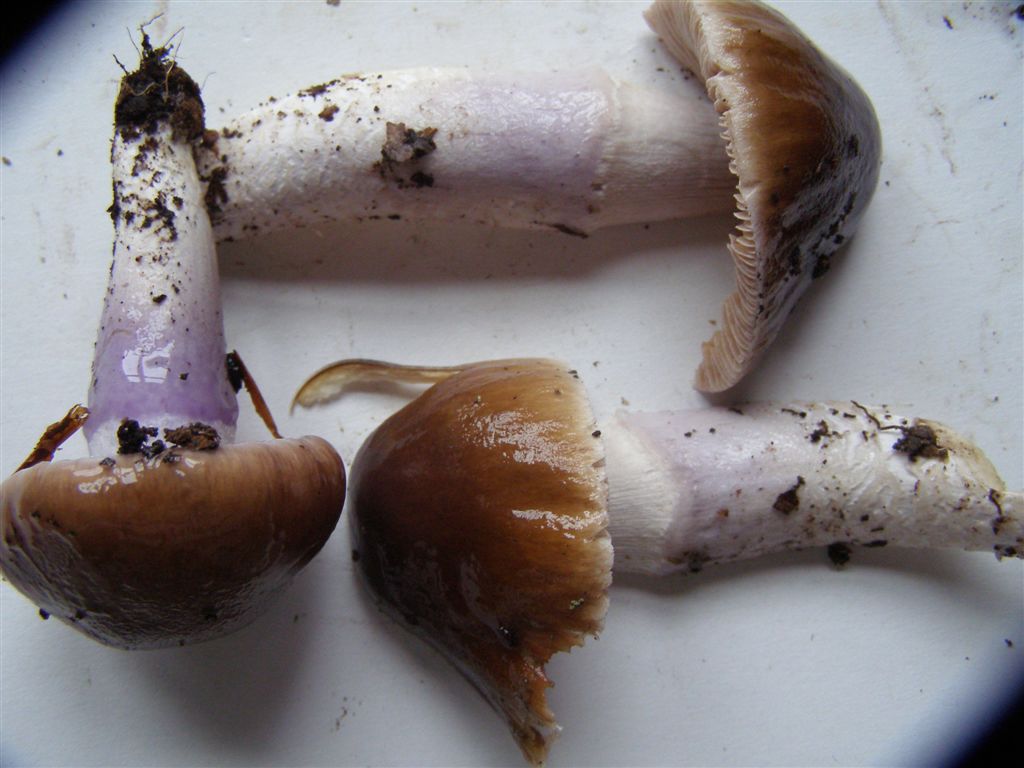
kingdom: Fungi
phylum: Basidiomycota
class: Agaricomycetes
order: Agaricales
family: Cortinariaceae
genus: Cortinarius
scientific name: Cortinarius elatior
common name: høj slørhat
